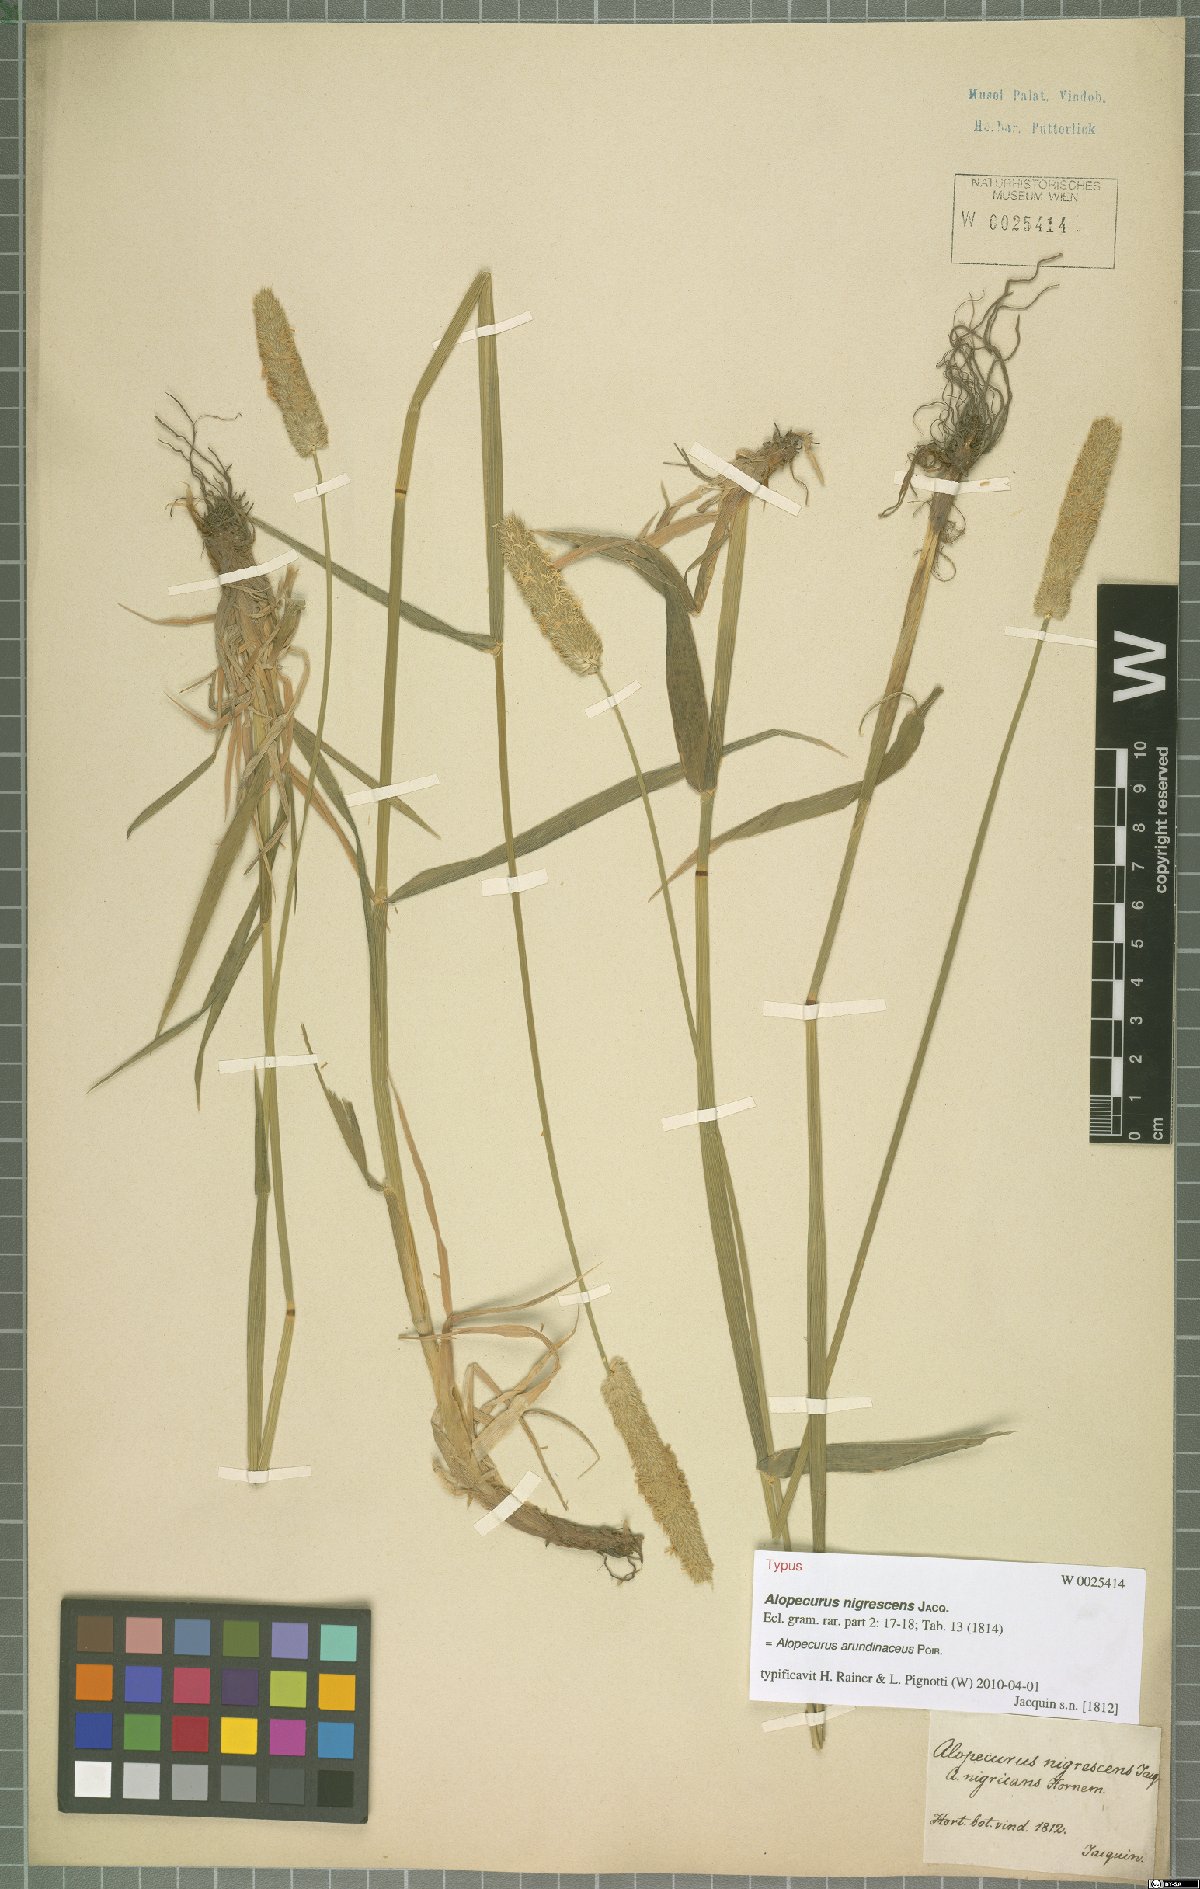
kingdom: Plantae
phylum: Tracheophyta
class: Liliopsida
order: Poales
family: Poaceae
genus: Alopecurus
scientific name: Alopecurus arundinaceus
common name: Creeping meadow foxtail
